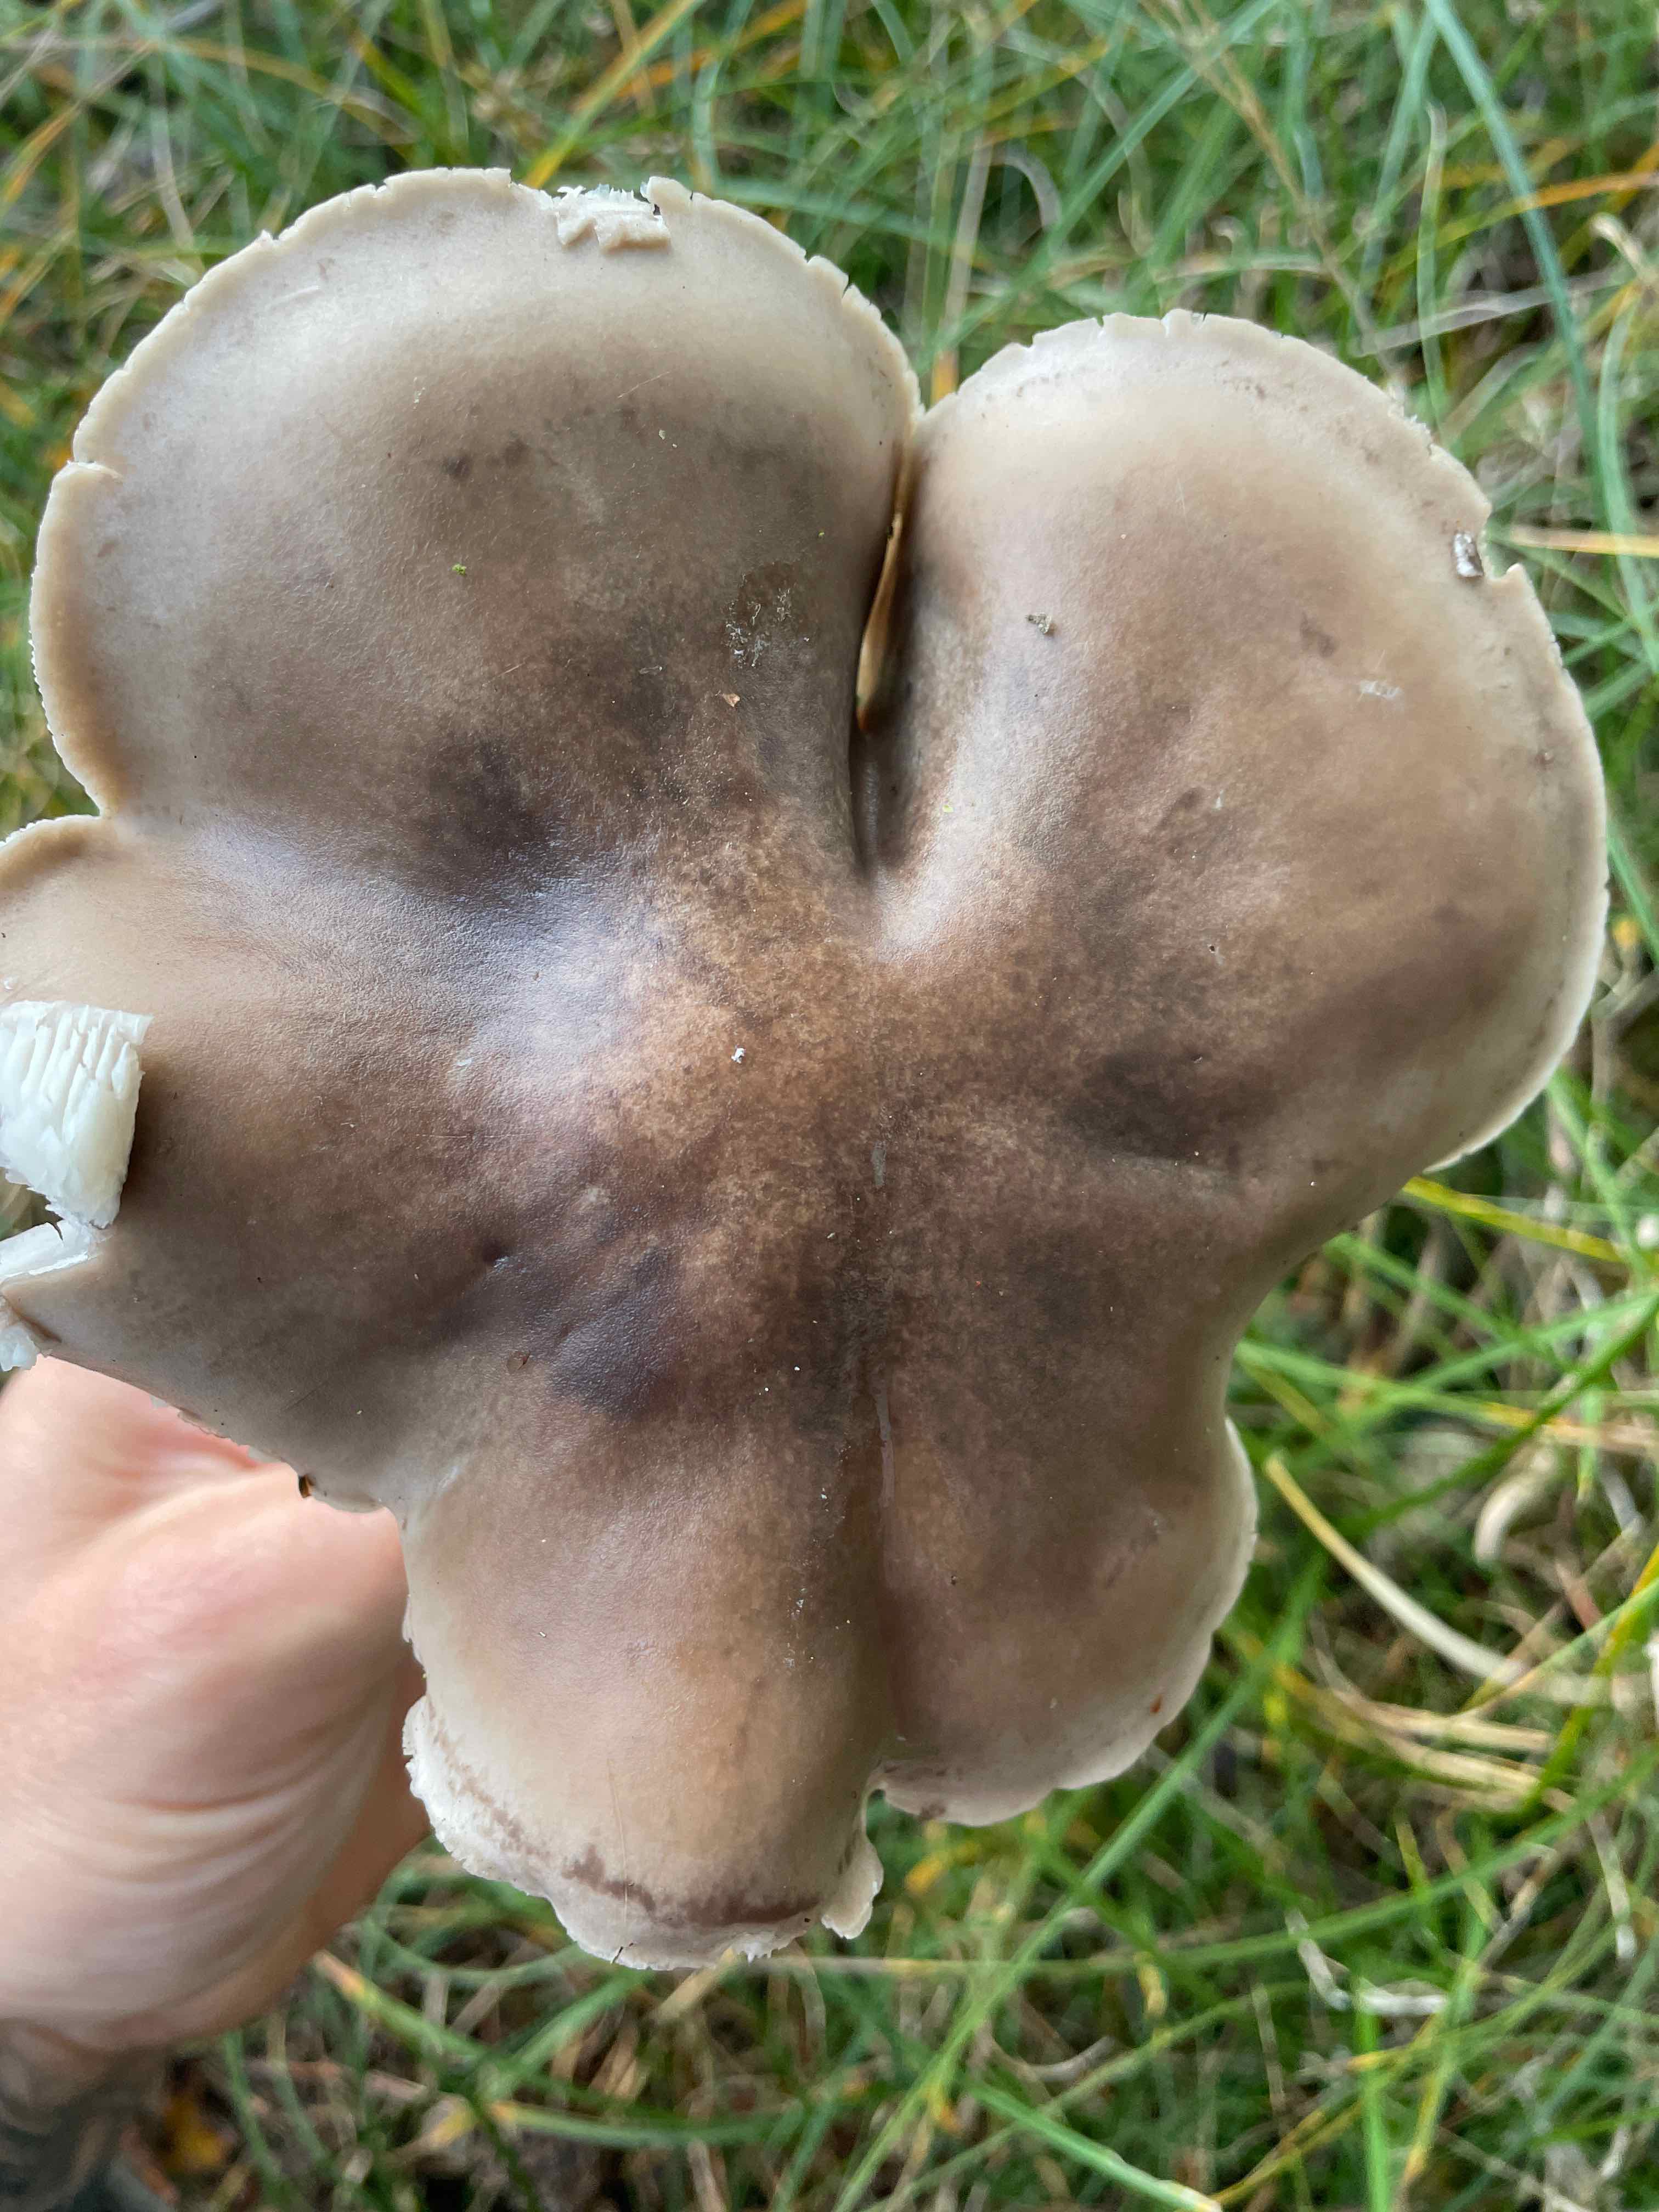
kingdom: Fungi
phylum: Basidiomycota
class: Agaricomycetes
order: Agaricales
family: Tricholomataceae
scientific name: Tricholomataceae
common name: ridderhatfamilien
